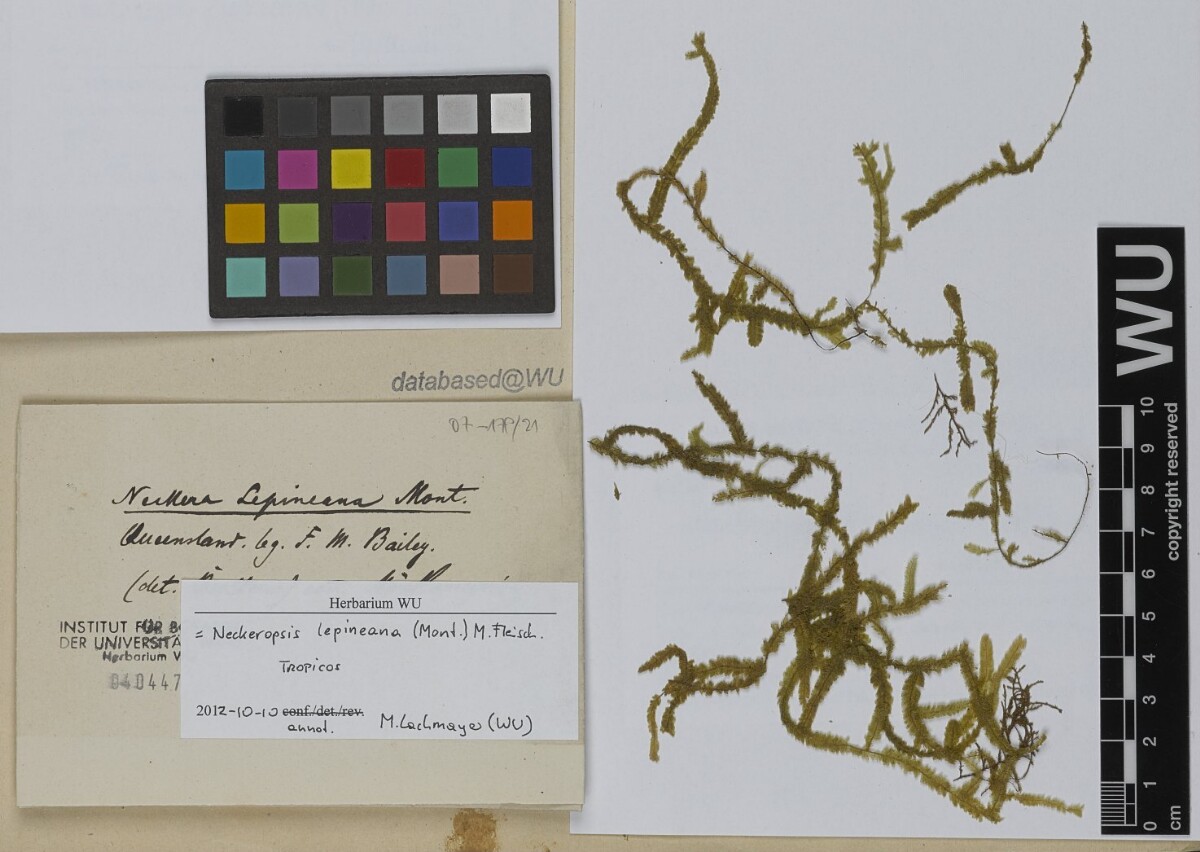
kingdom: Plantae
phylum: Bryophyta
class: Bryopsida
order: Hypnales
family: Neckeraceae
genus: Neckeromnion
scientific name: Neckeromnion lepineanum
